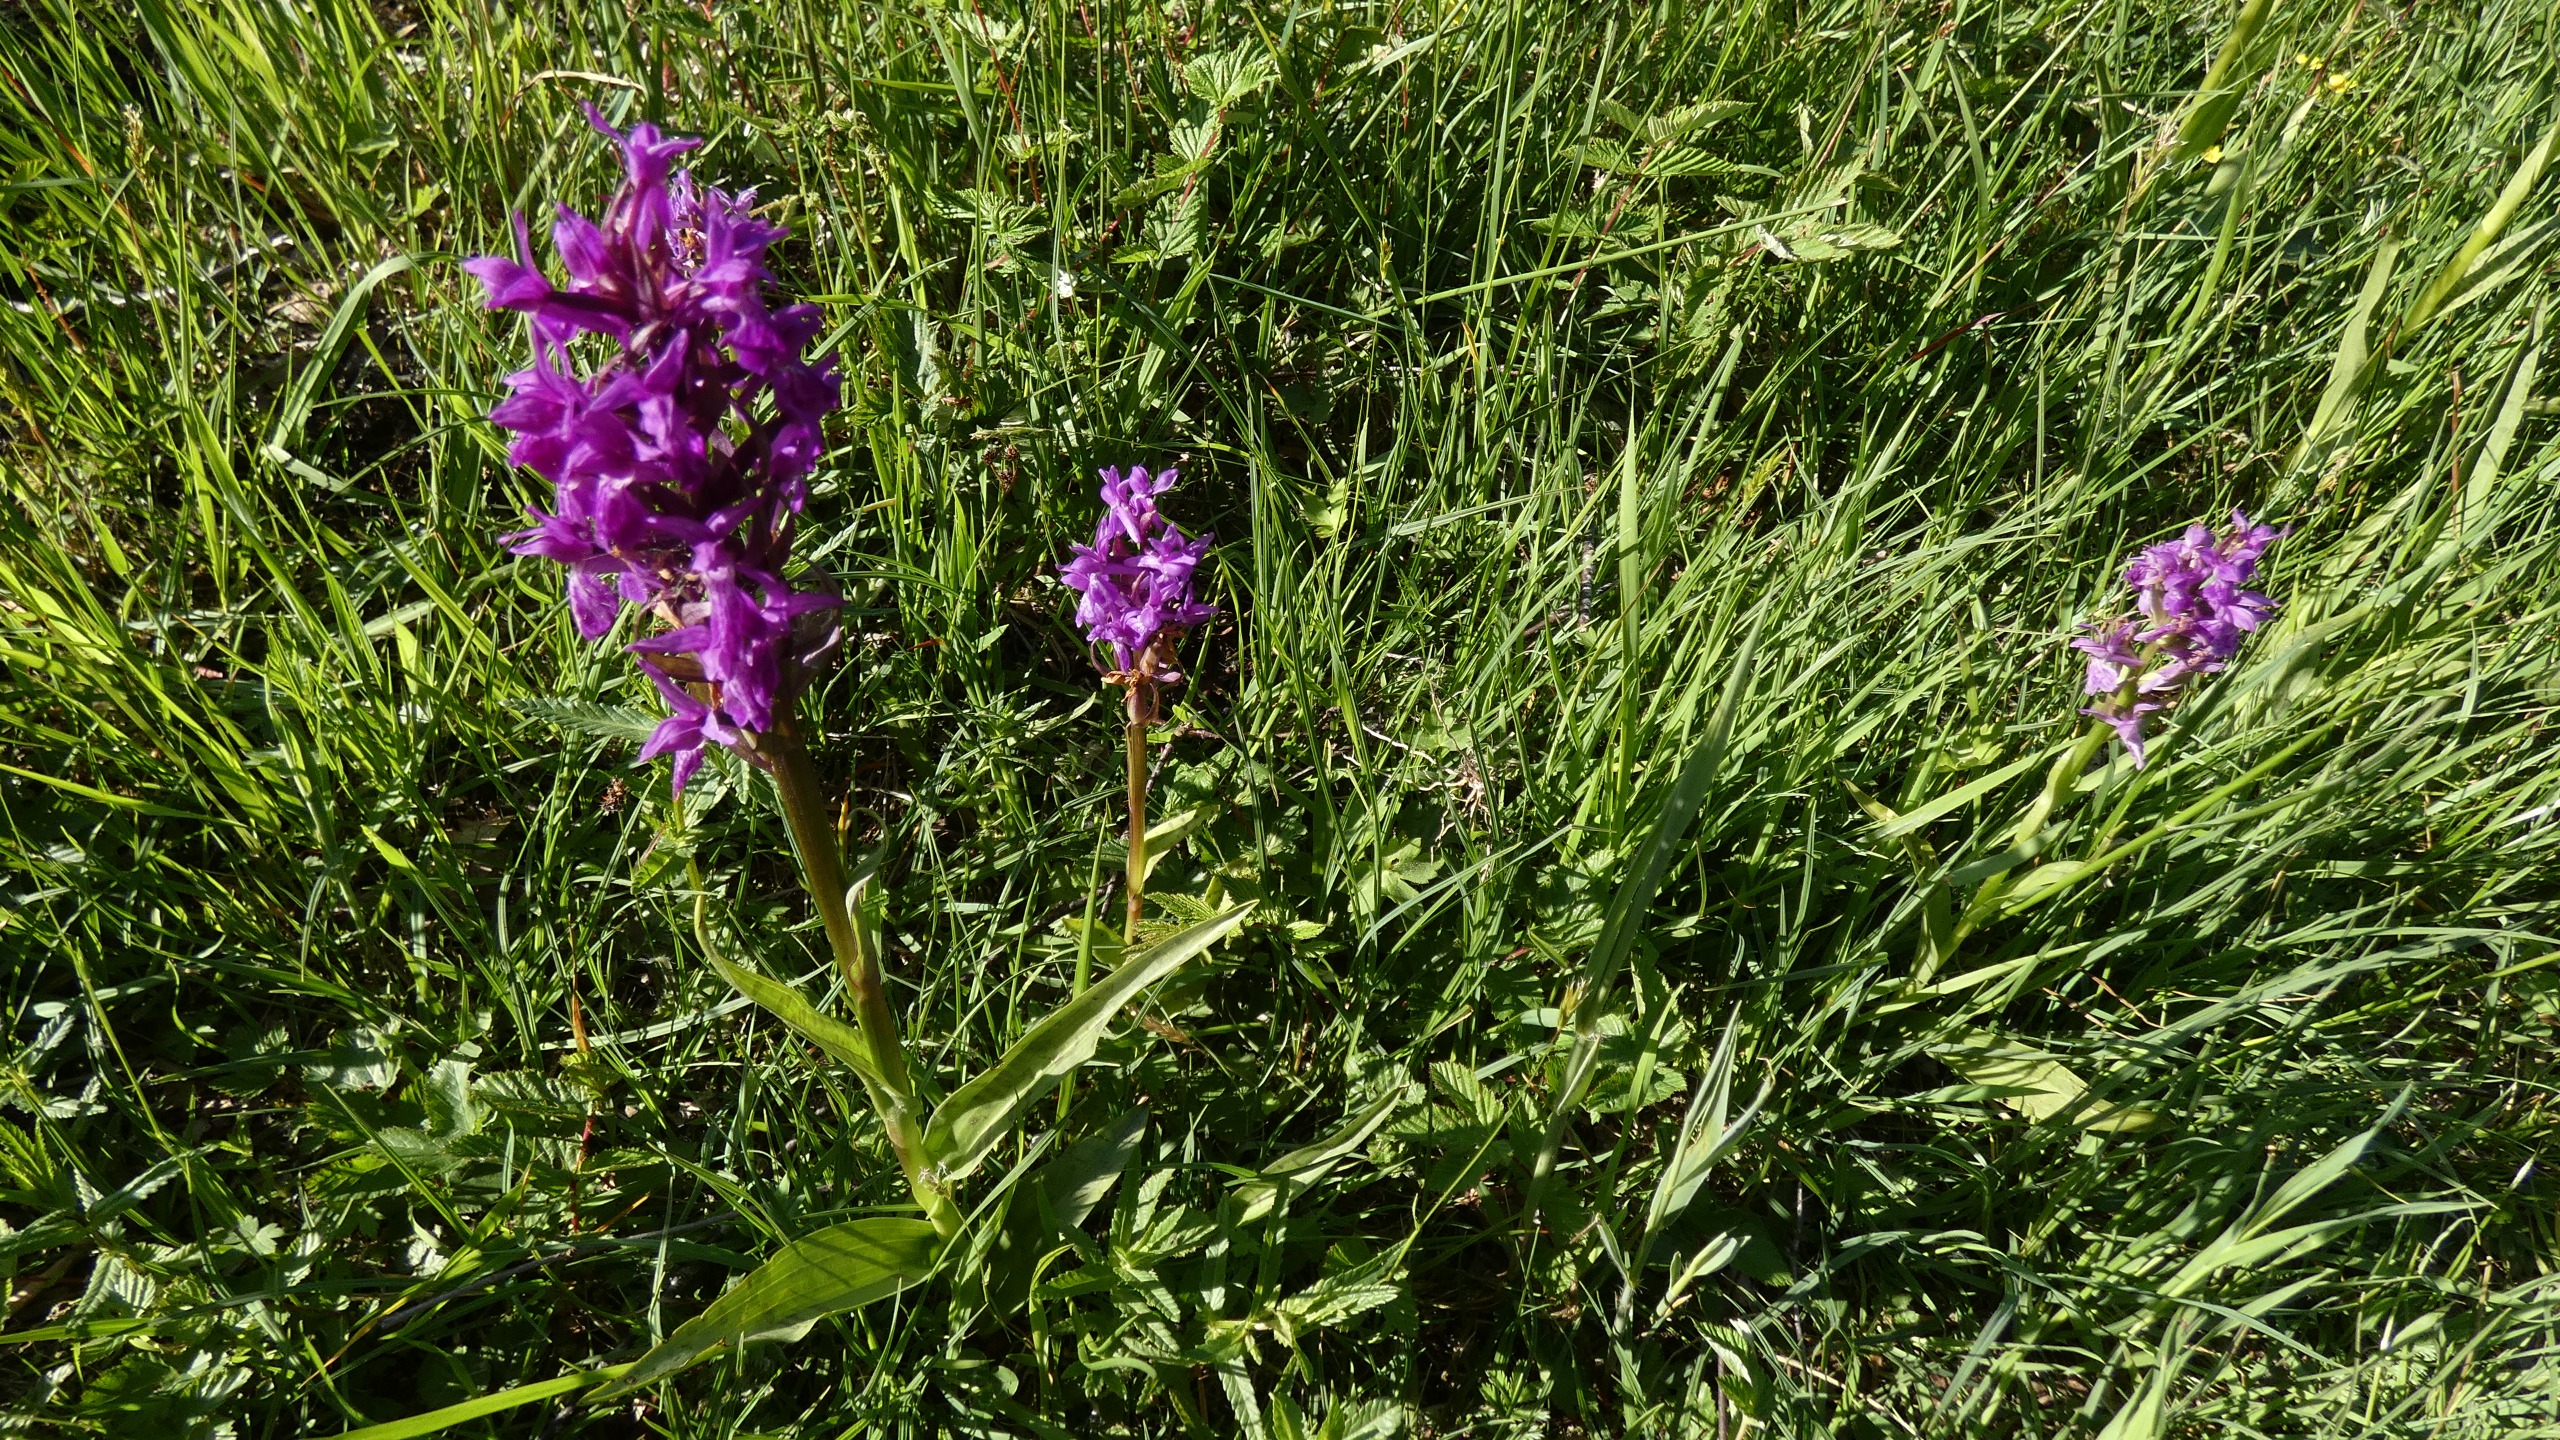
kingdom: Plantae
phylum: Tracheophyta
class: Liliopsida
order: Asparagales
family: Orchidaceae
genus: Dactylorhiza
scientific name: Dactylorhiza majalis
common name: Maj-gøgeurt
